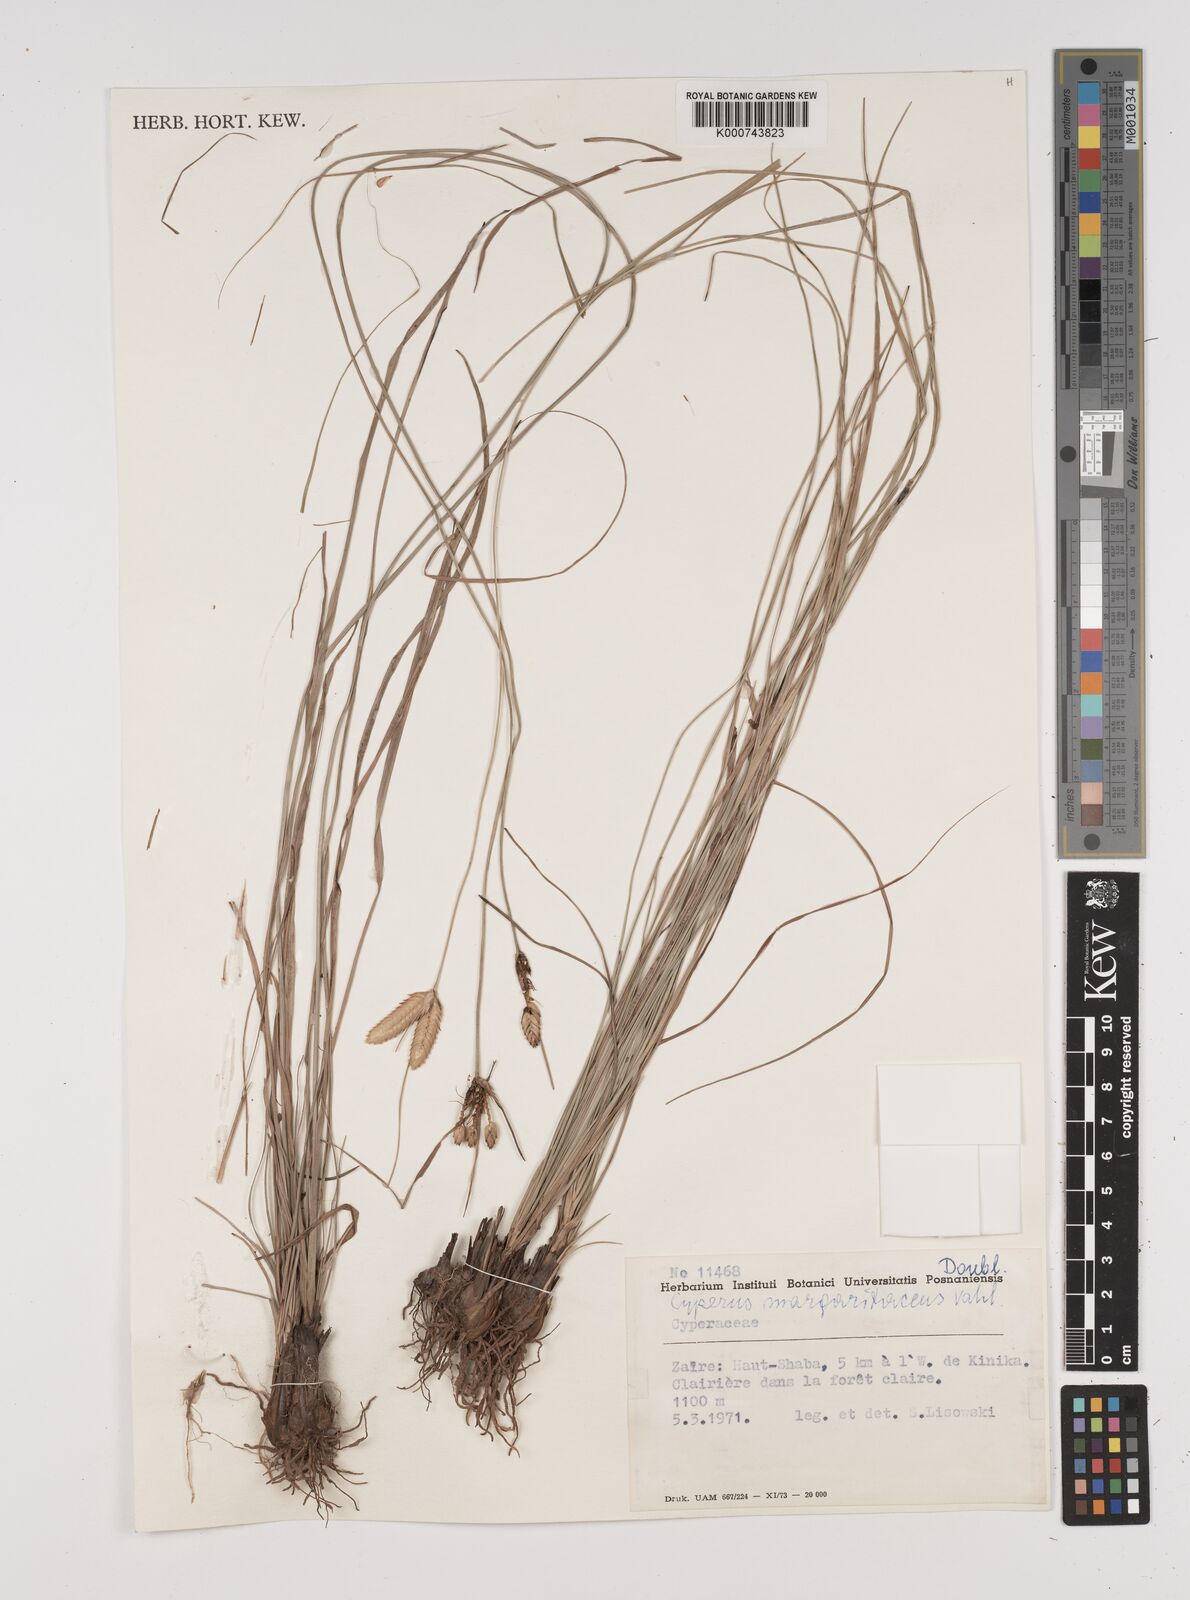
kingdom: Plantae
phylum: Tracheophyta
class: Liliopsida
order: Poales
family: Cyperaceae
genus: Cyperus
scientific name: Cyperus margaritaceus
